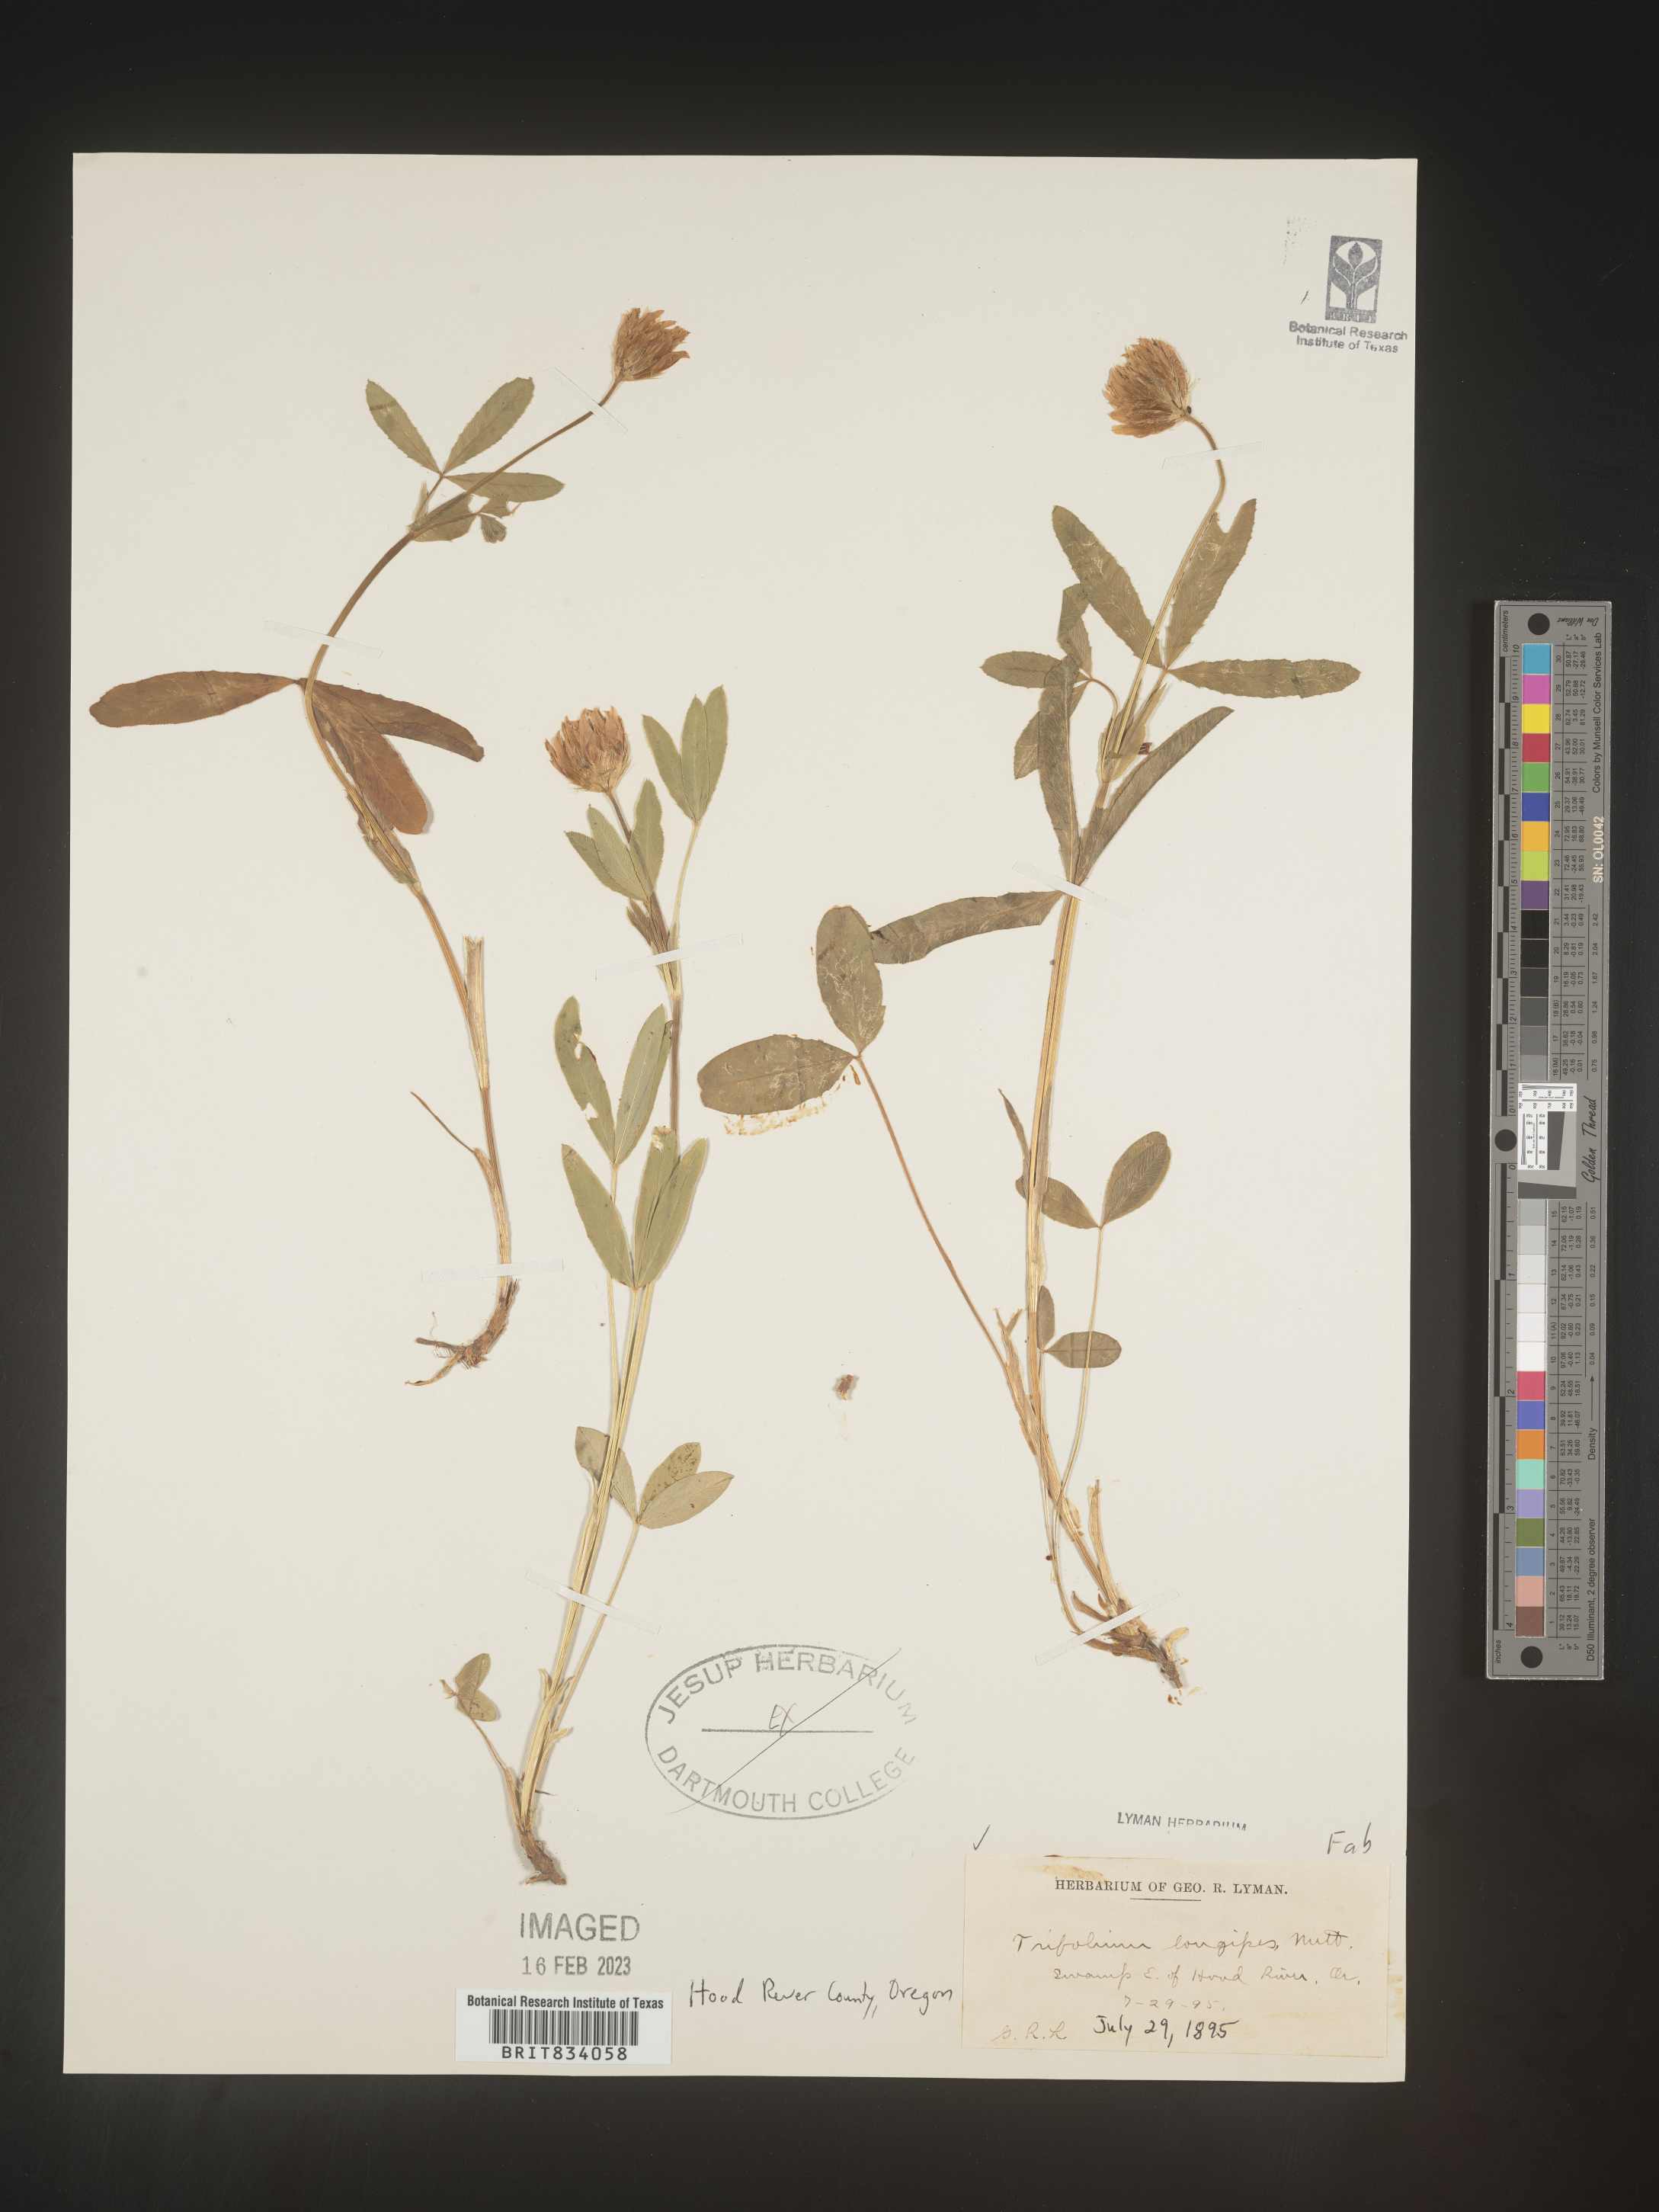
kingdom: Plantae
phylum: Tracheophyta
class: Magnoliopsida
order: Fabales
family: Fabaceae
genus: Trifolium
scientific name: Trifolium
